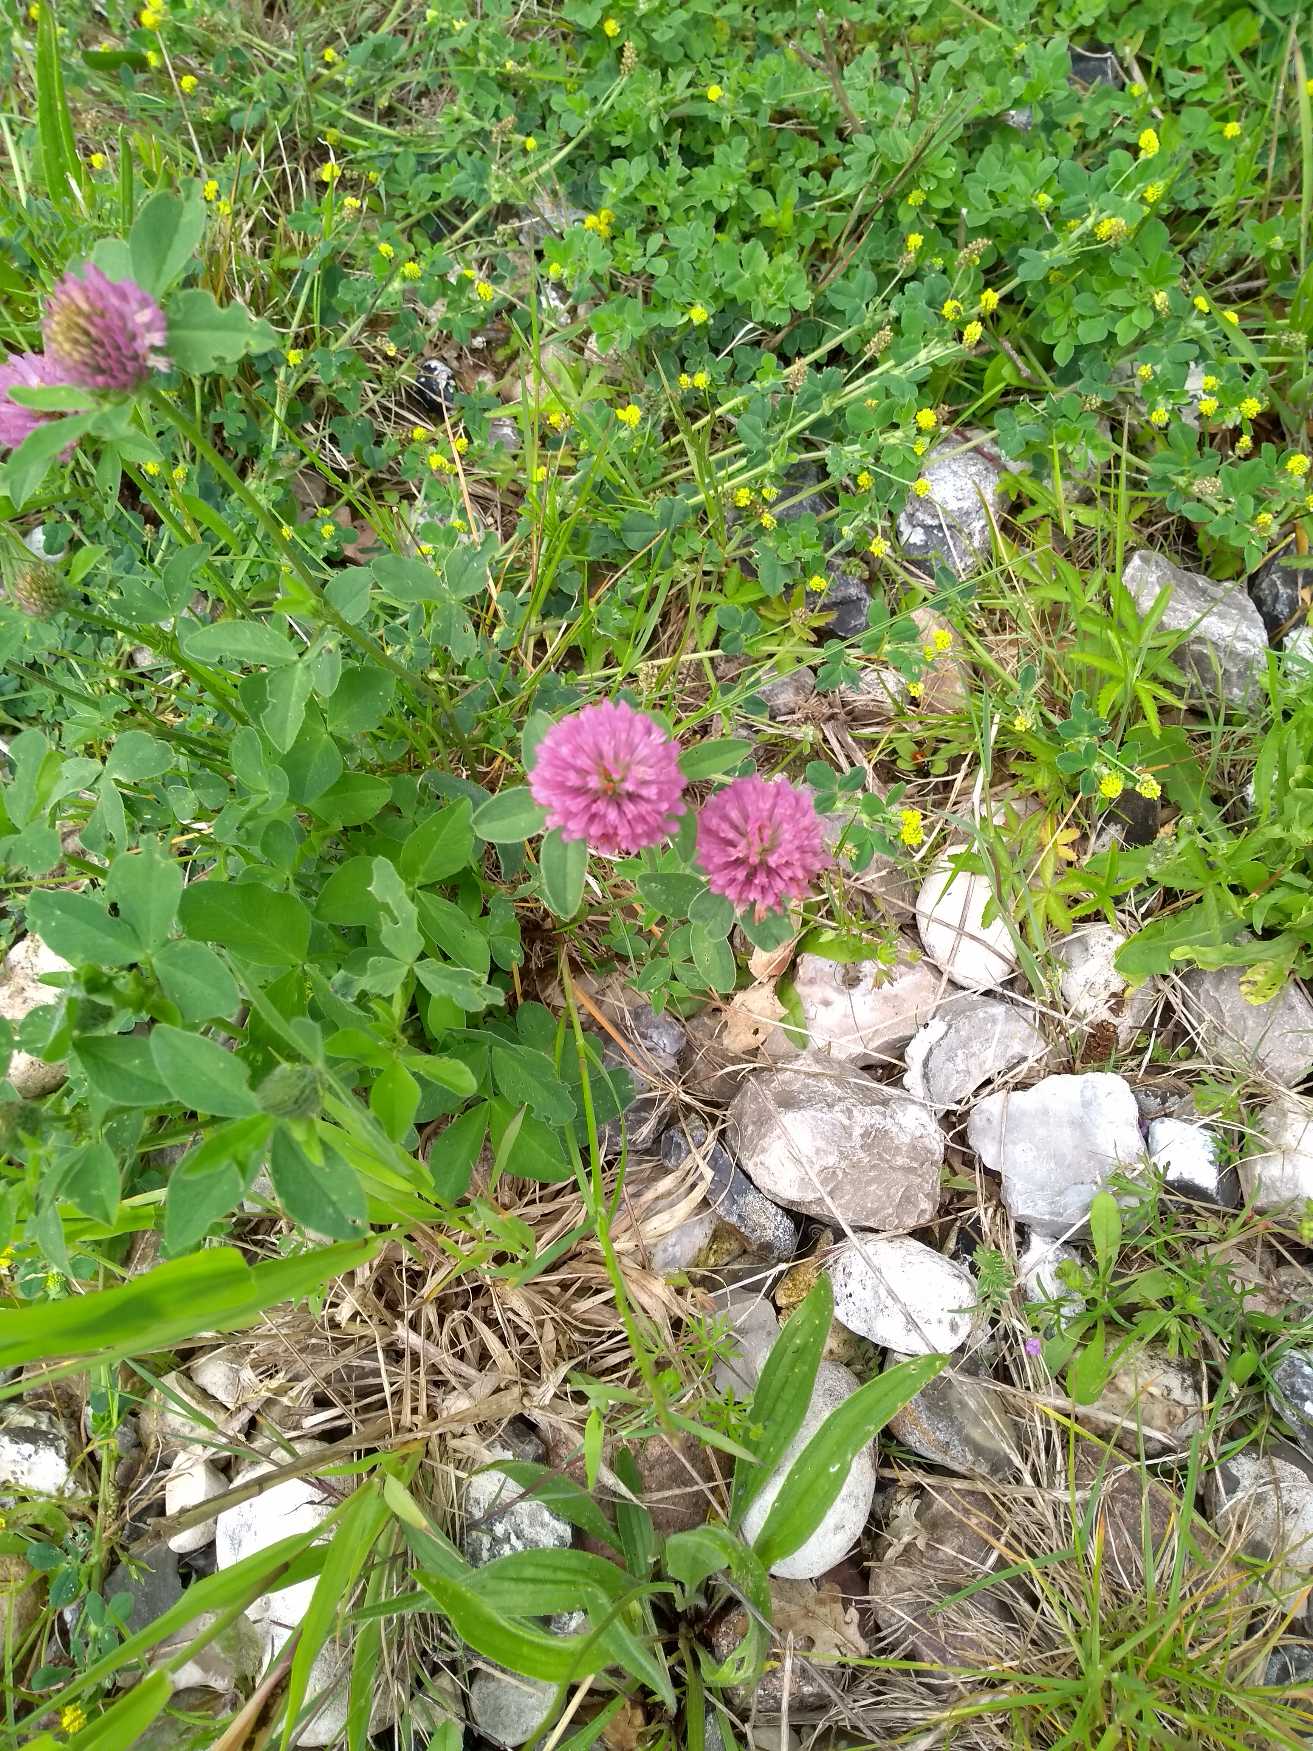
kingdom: Plantae
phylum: Tracheophyta
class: Magnoliopsida
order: Fabales
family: Fabaceae
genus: Trifolium
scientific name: Trifolium pratense
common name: Rød-kløver
